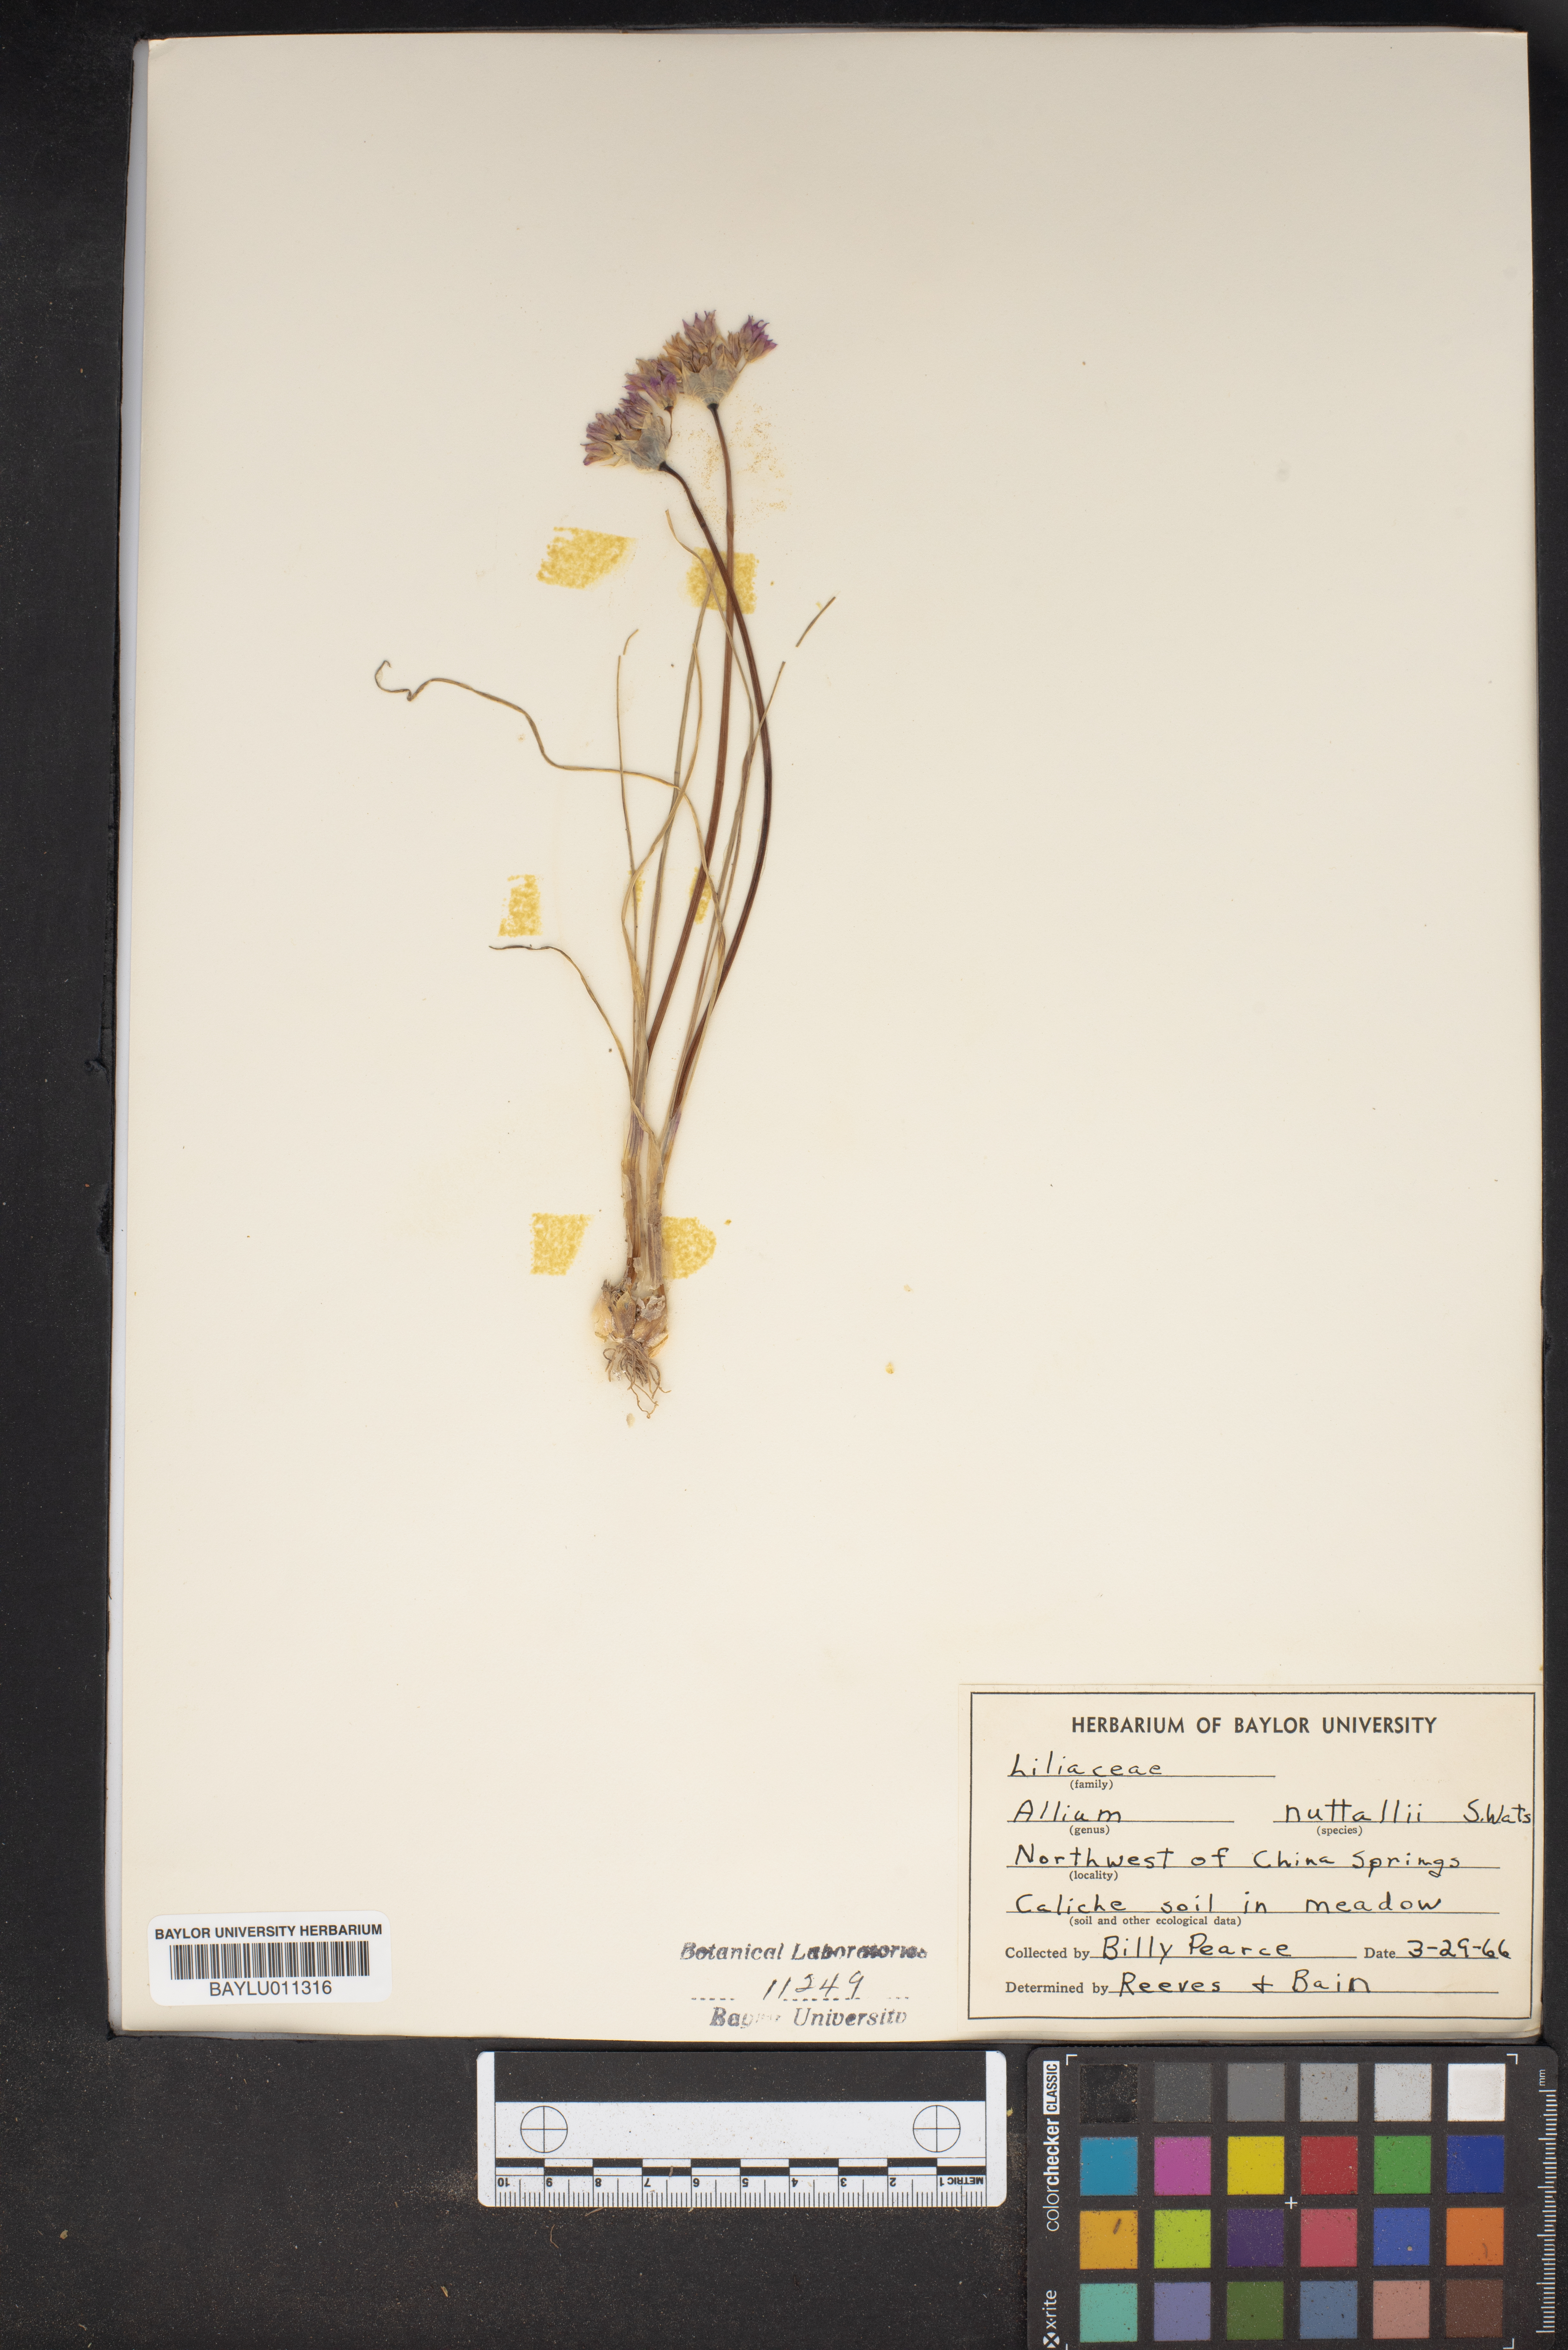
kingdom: Plantae
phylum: Tracheophyta
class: Liliopsida
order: Asparagales
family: Amaryllidaceae
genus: Allium
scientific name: Allium drummondii
